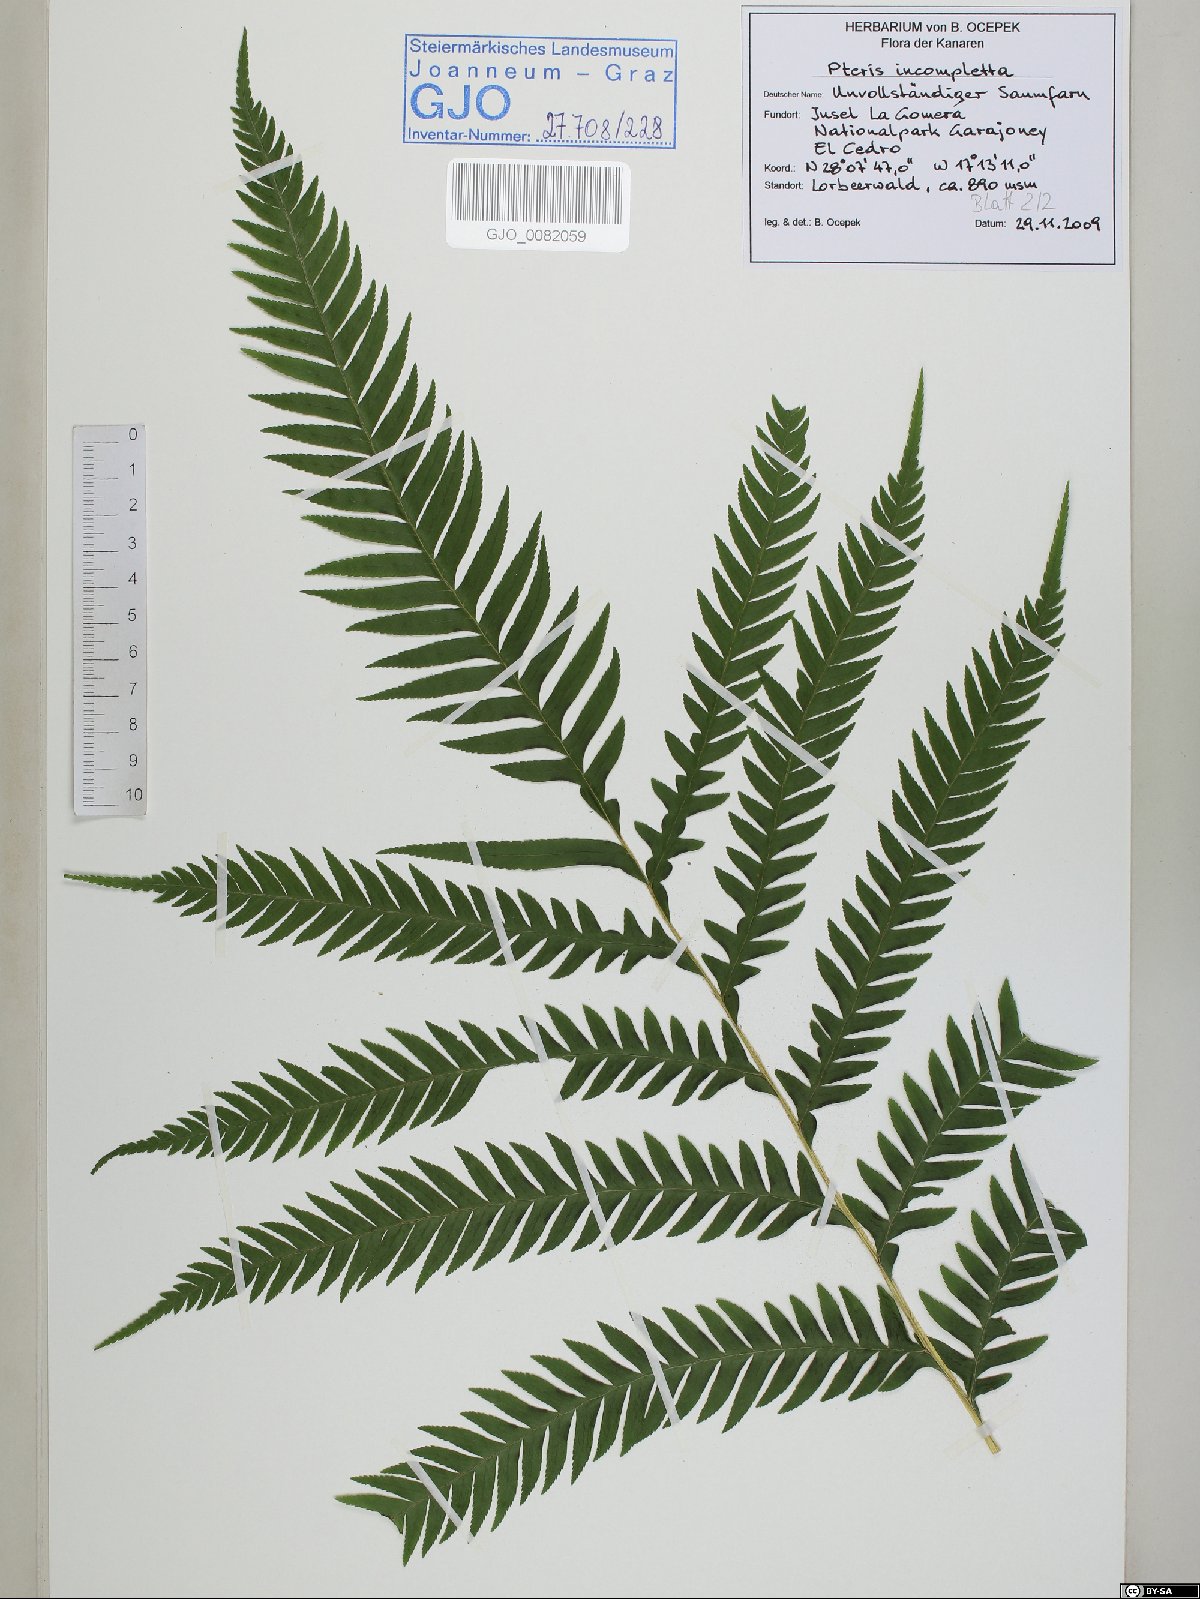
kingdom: Plantae
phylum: Tracheophyta
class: Polypodiopsida
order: Polypodiales
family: Pteridaceae
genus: Pteris
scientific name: Pteris incompleta
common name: Laurisilva brake
